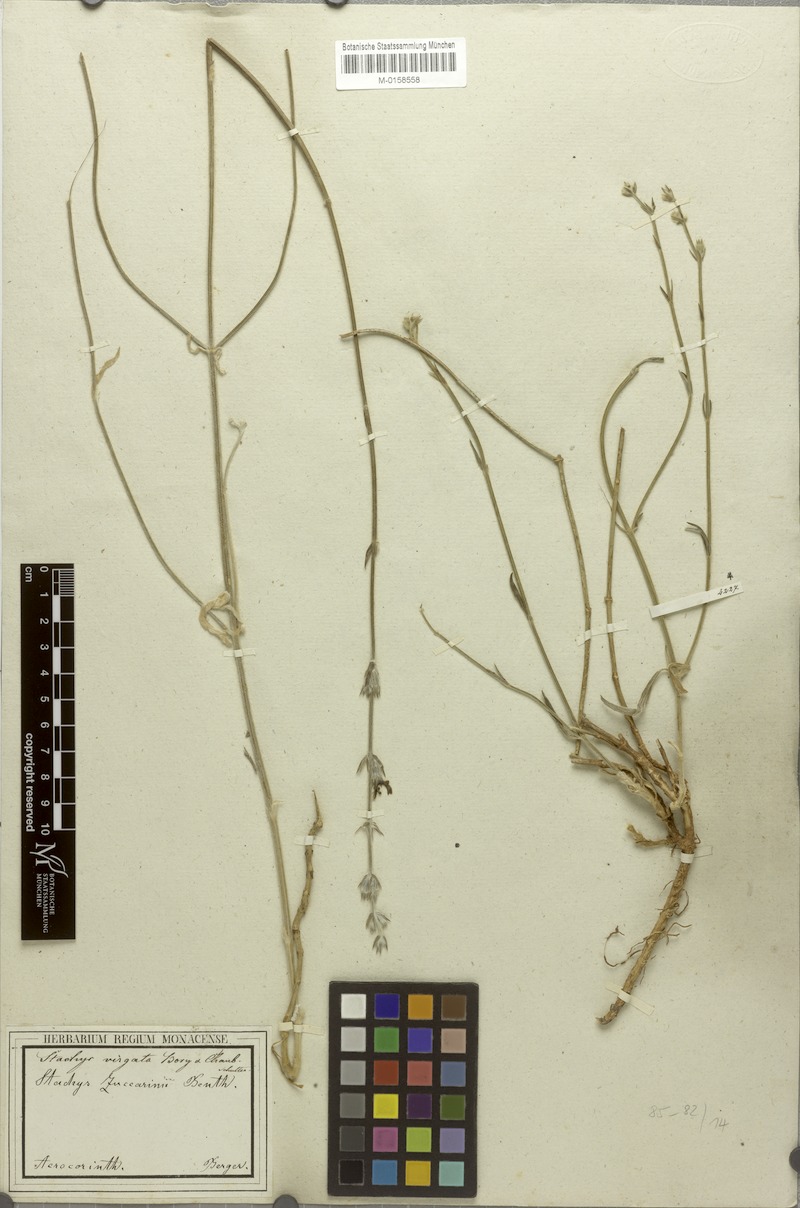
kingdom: Plantae
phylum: Tracheophyta
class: Magnoliopsida
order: Lamiales
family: Lamiaceae
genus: Stachys
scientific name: Stachys virgata
